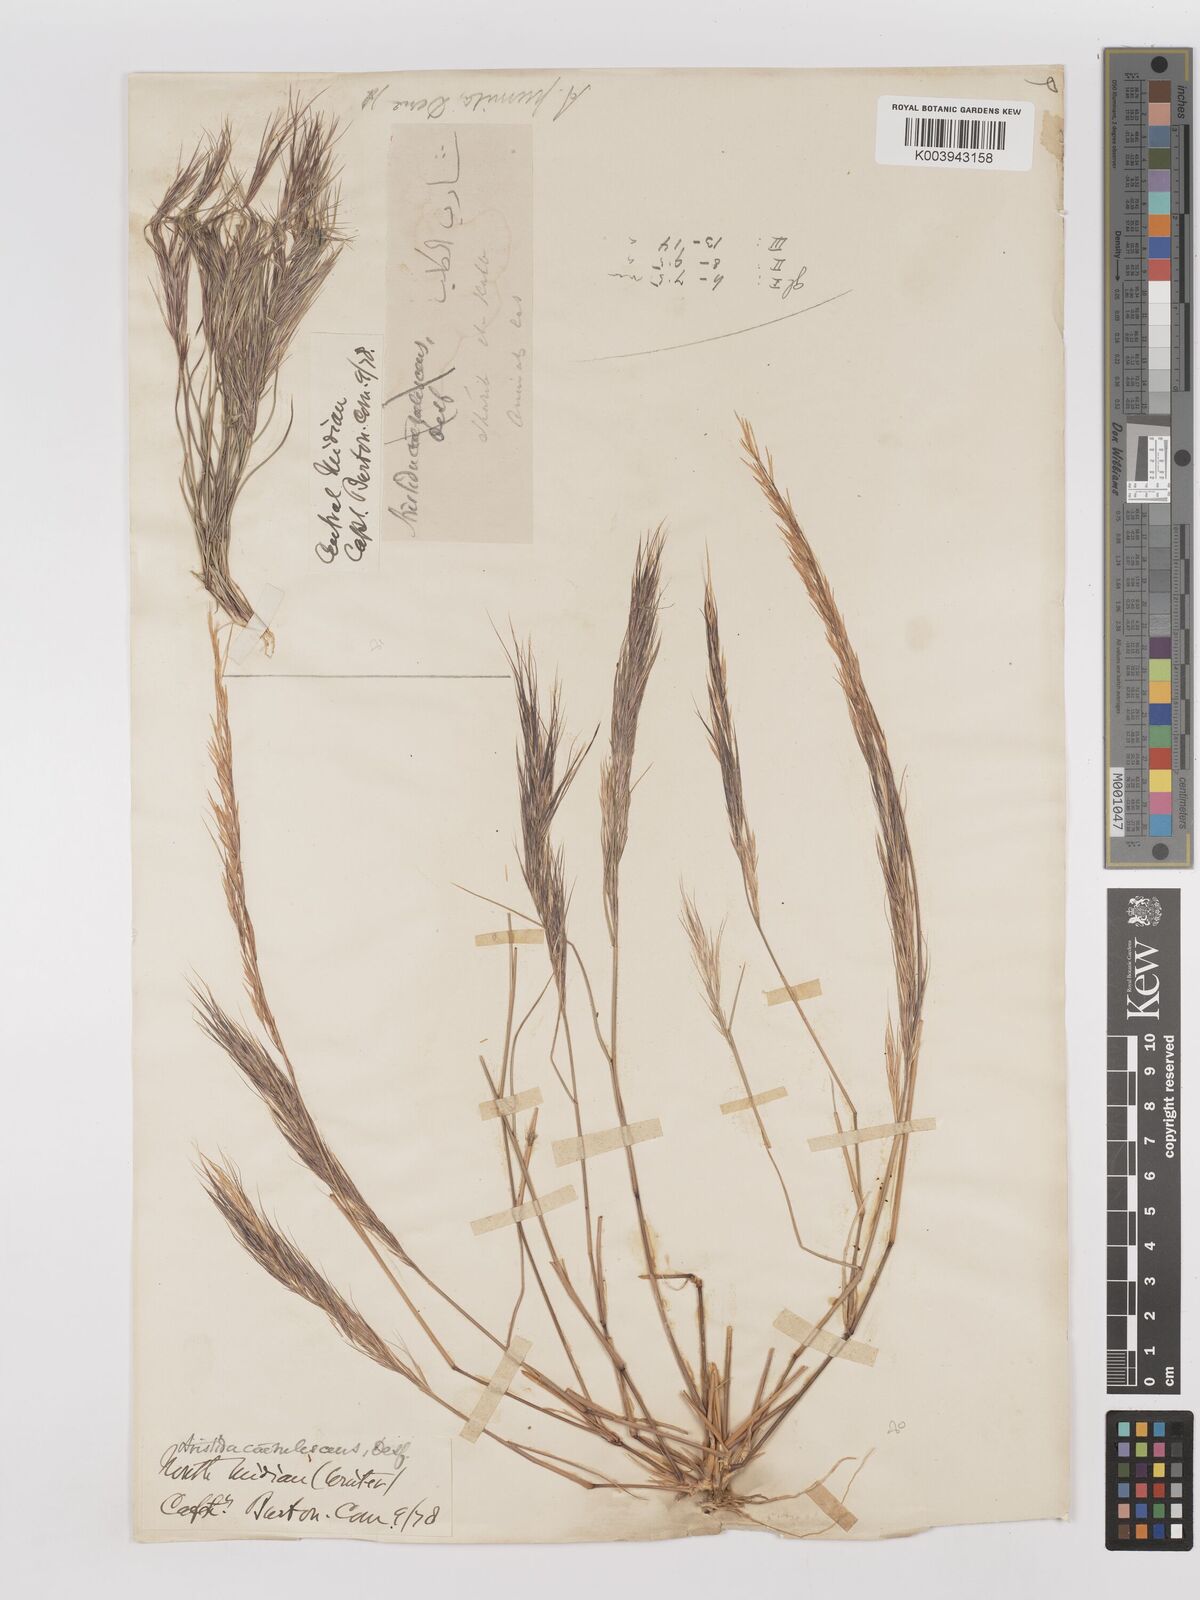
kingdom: Plantae
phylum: Tracheophyta
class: Liliopsida
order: Poales
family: Poaceae
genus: Aristida
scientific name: Aristida adscensionis
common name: Sixweeks threeawn
